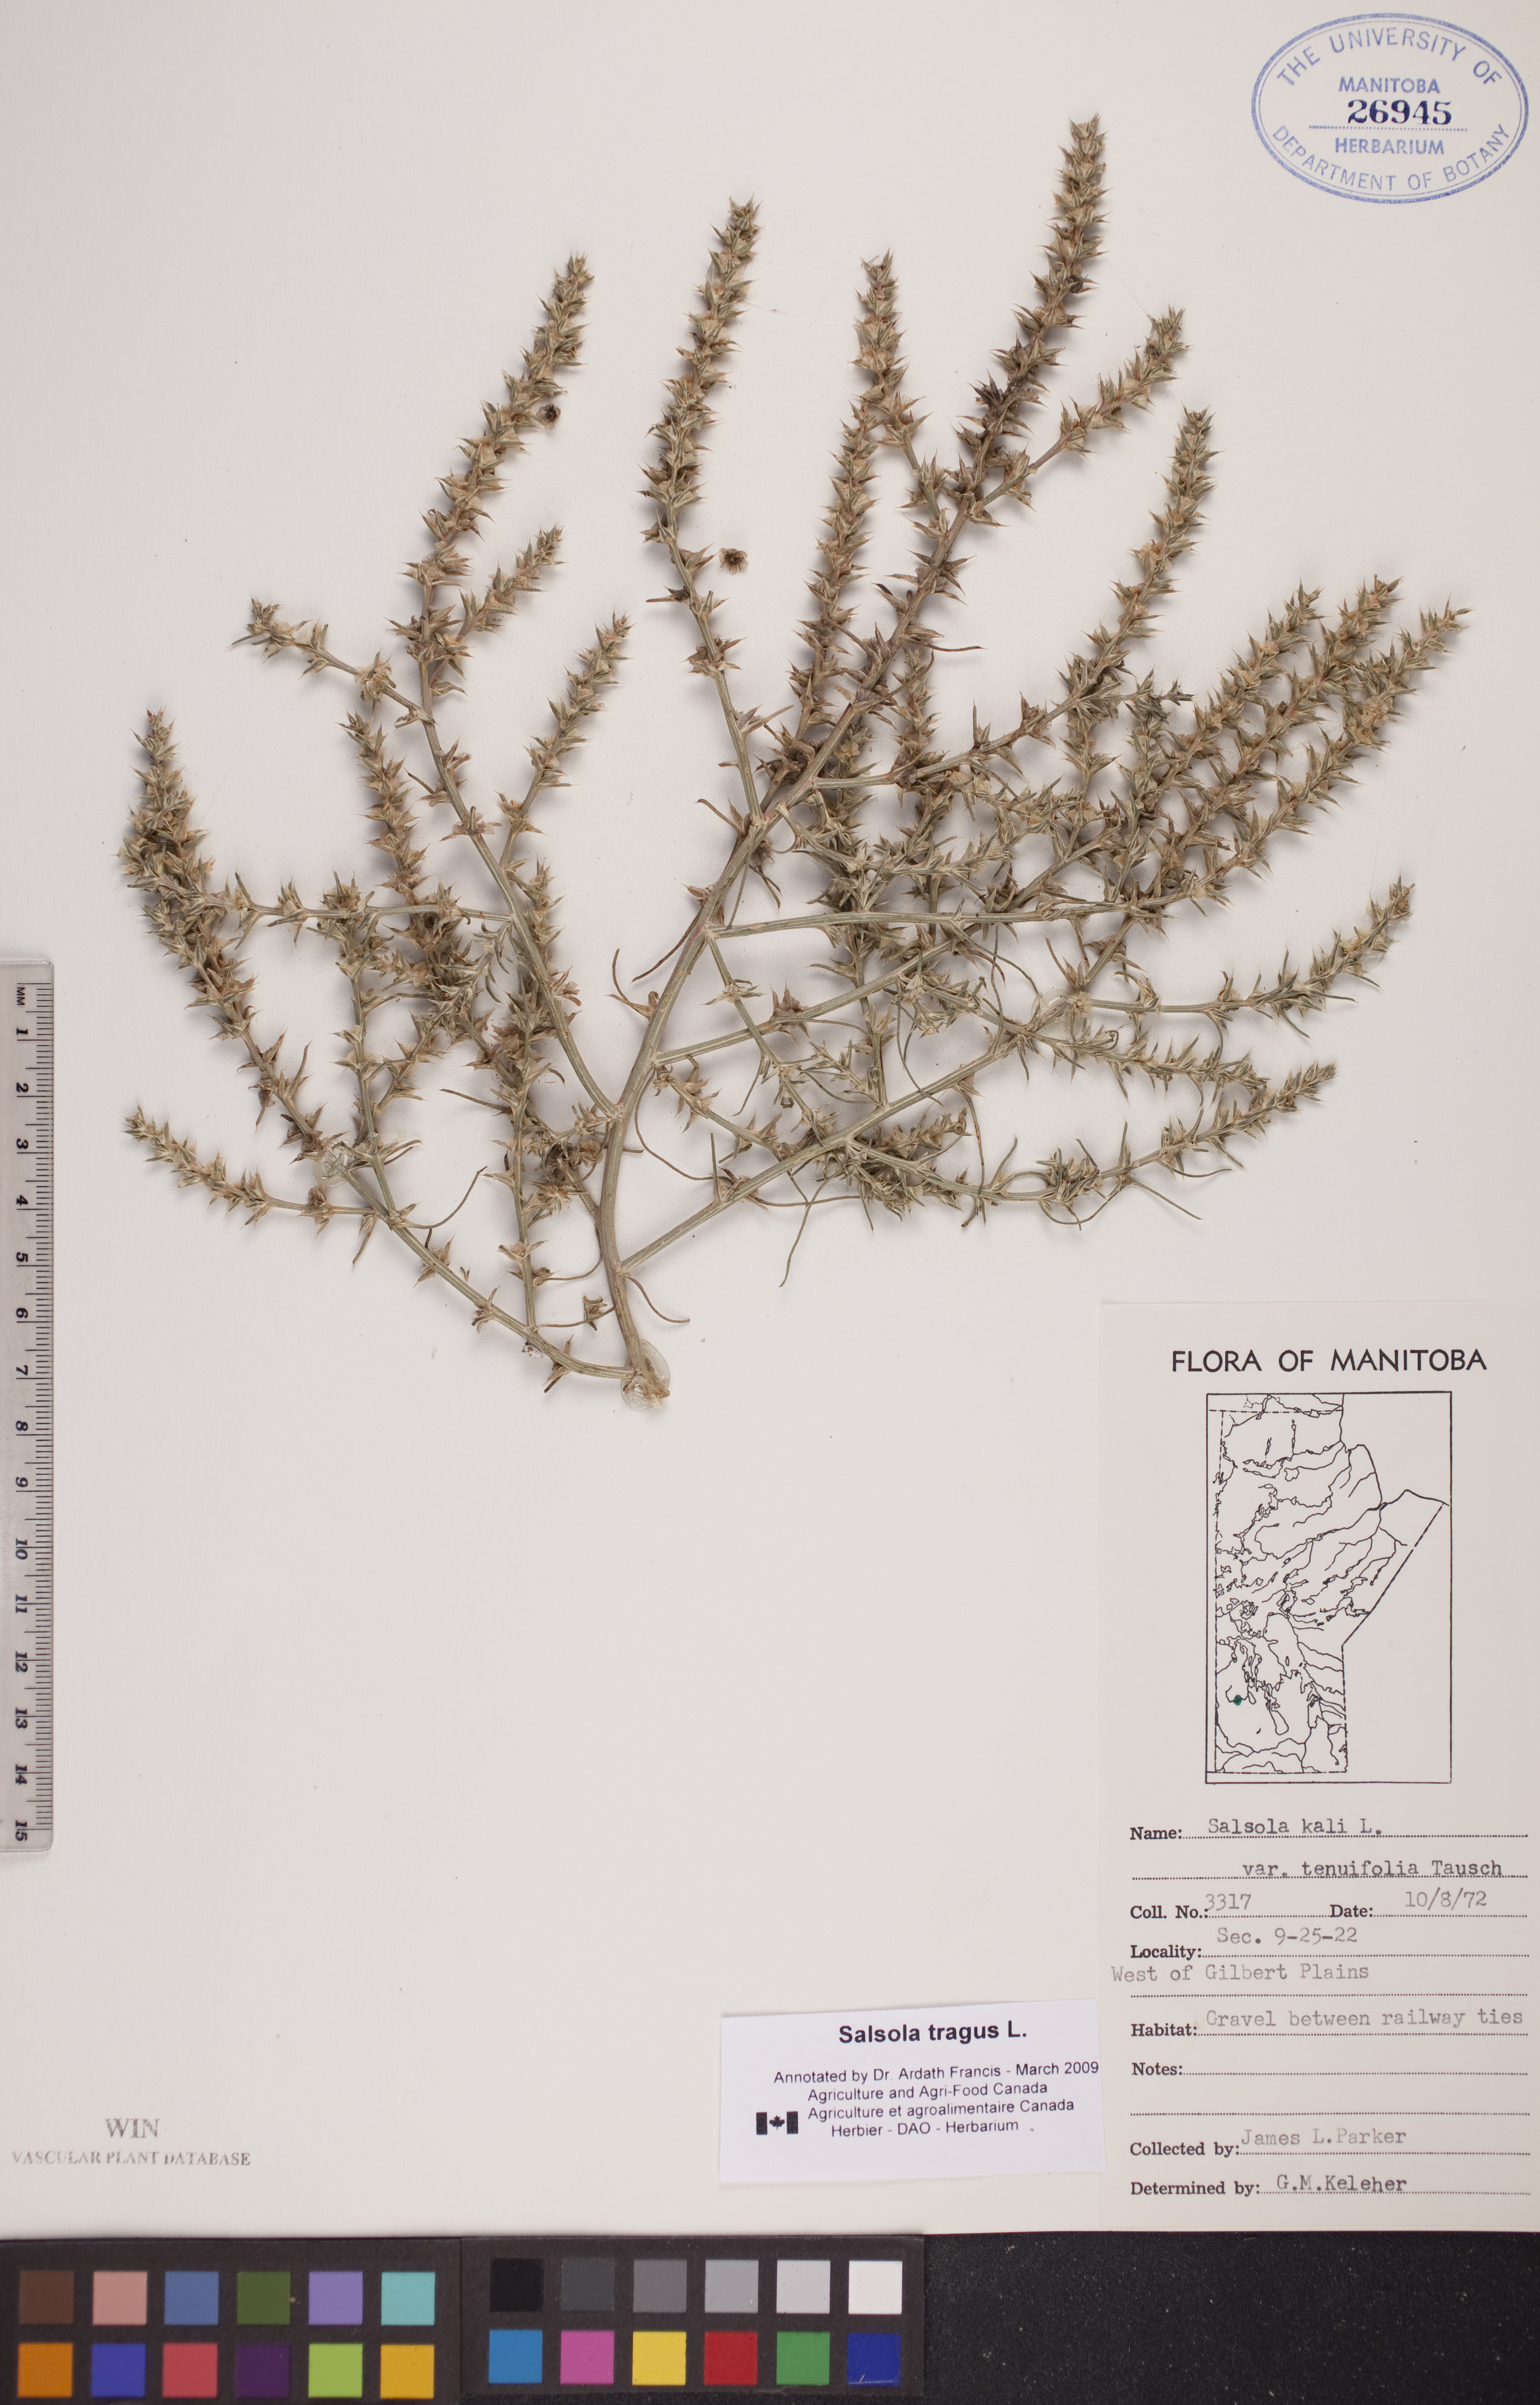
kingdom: Plantae
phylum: Tracheophyta
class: Magnoliopsida
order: Caryophyllales
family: Amaranthaceae
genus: Salsola
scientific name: Salsola tragus
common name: Prickly russian thistle
